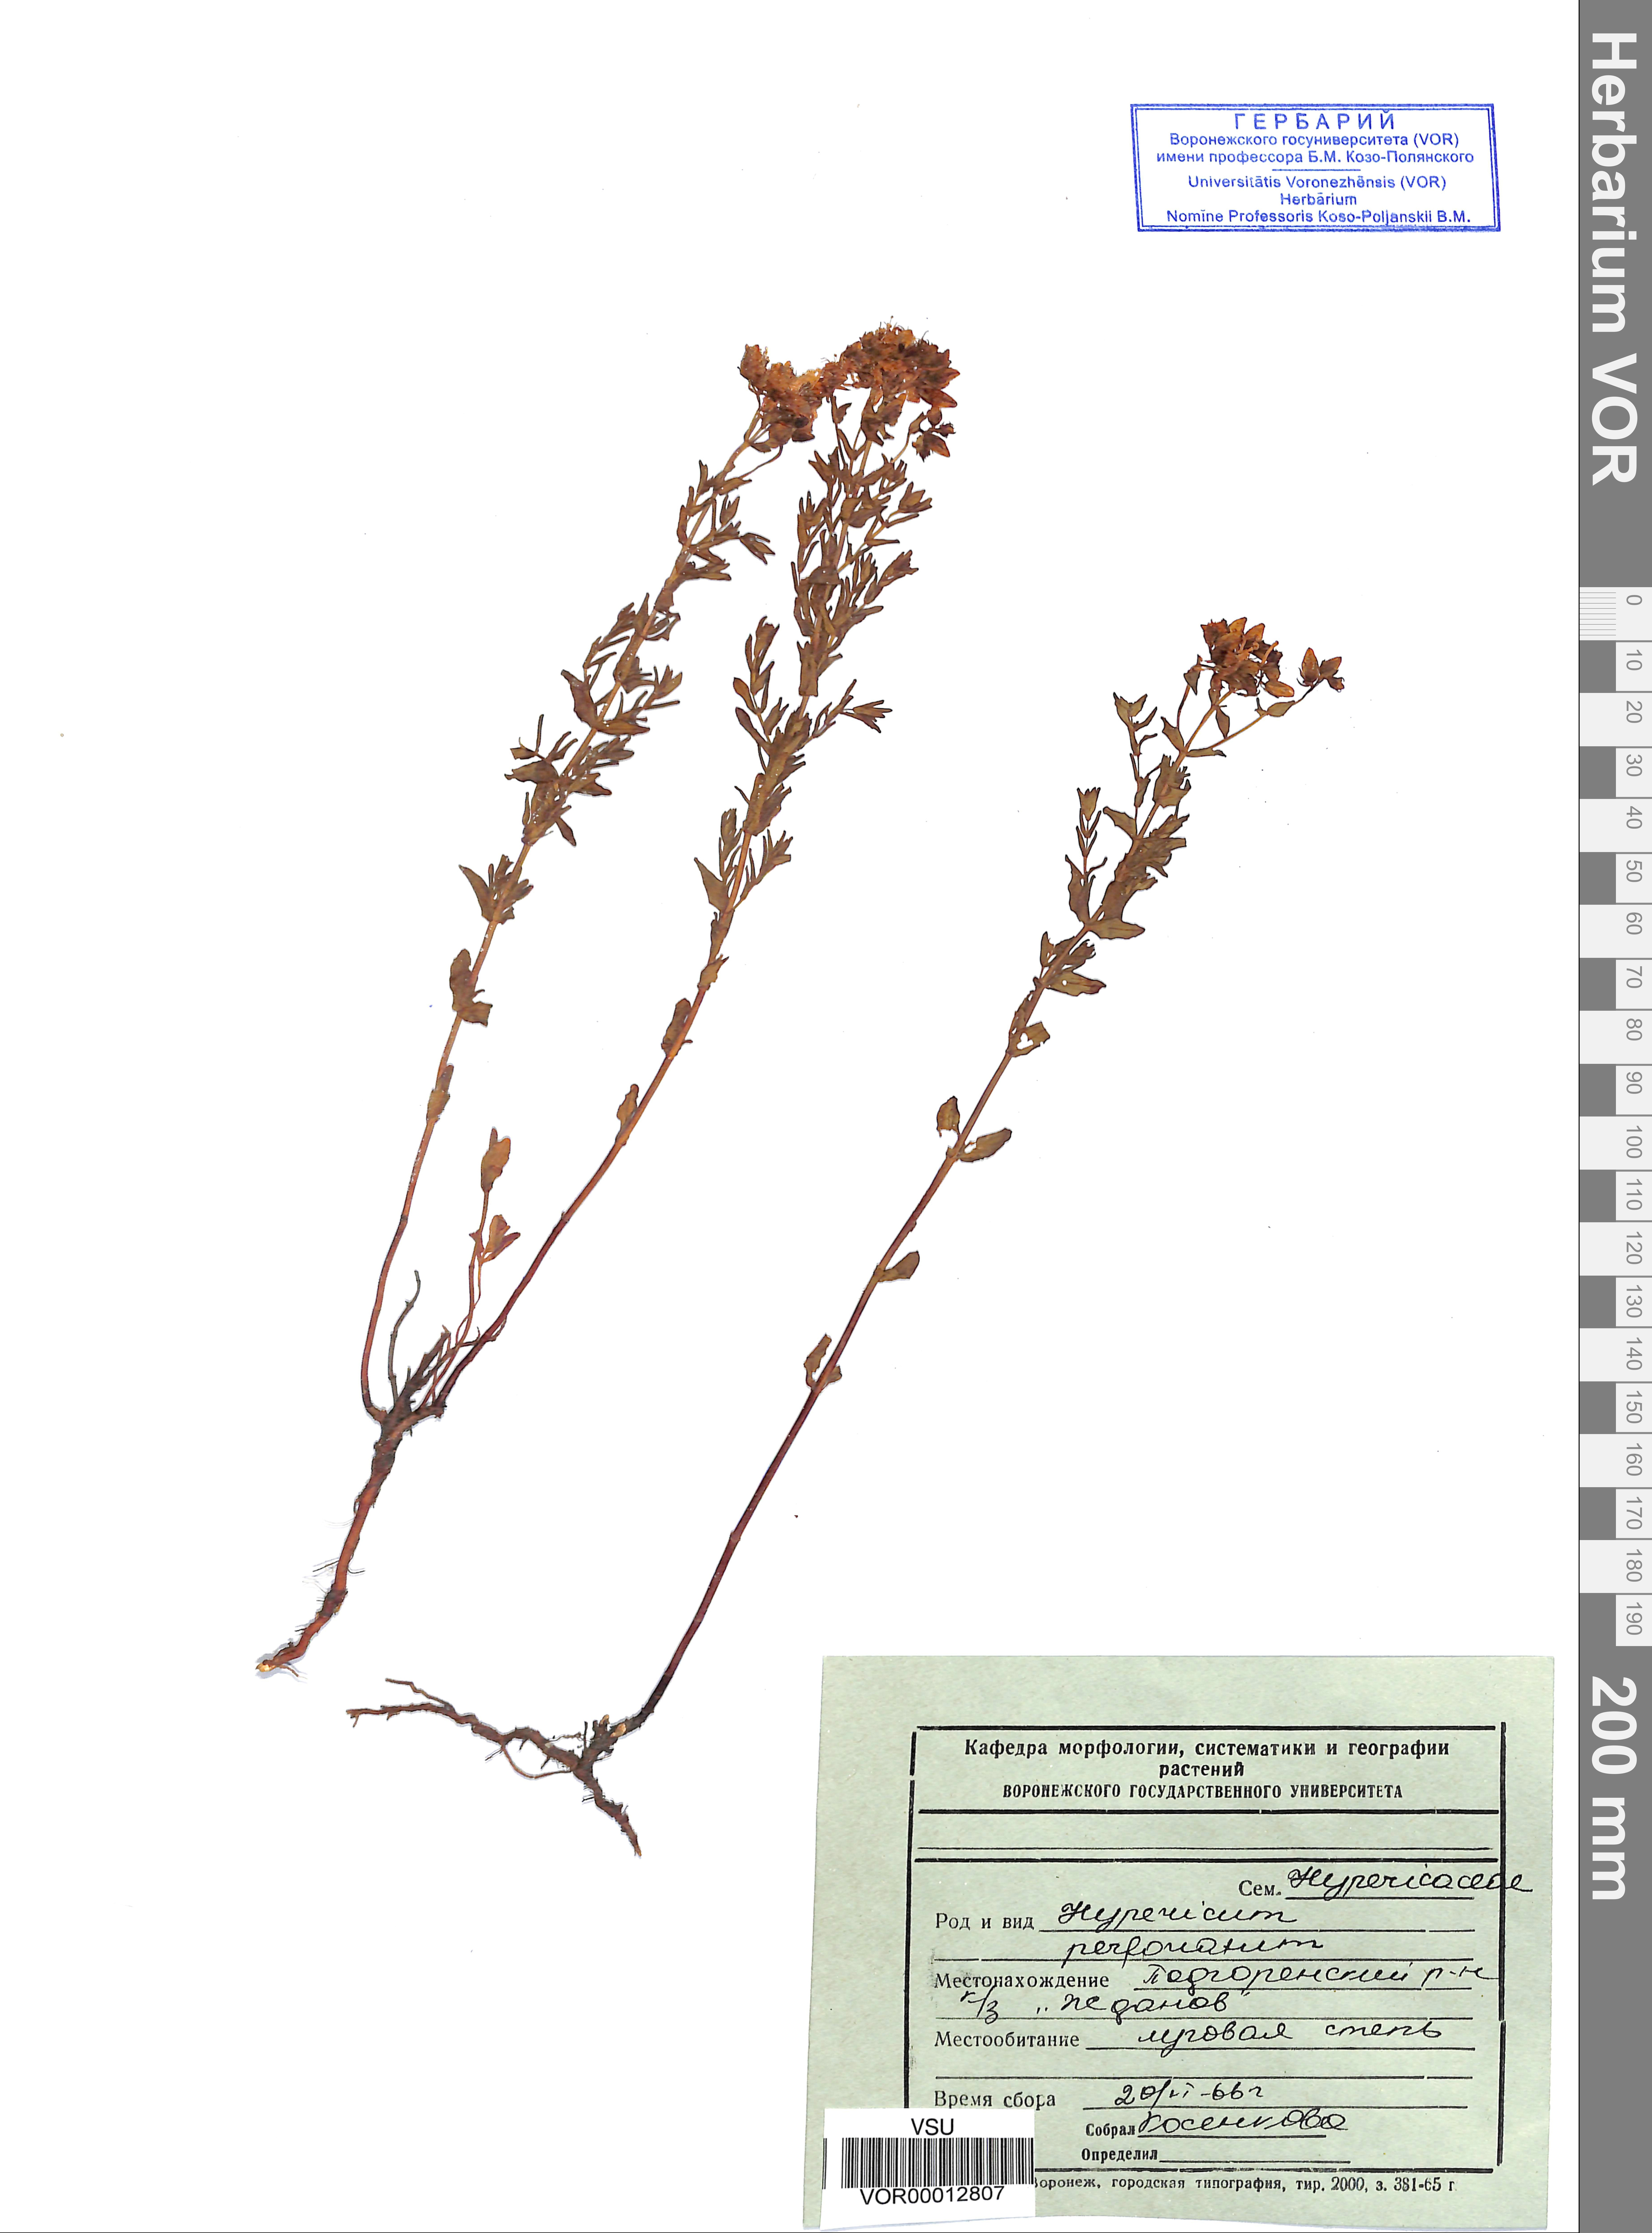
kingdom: Plantae
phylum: Tracheophyta
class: Magnoliopsida
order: Malpighiales
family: Hypericaceae
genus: Hypericum
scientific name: Hypericum perforatum
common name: Common st. johnswort
